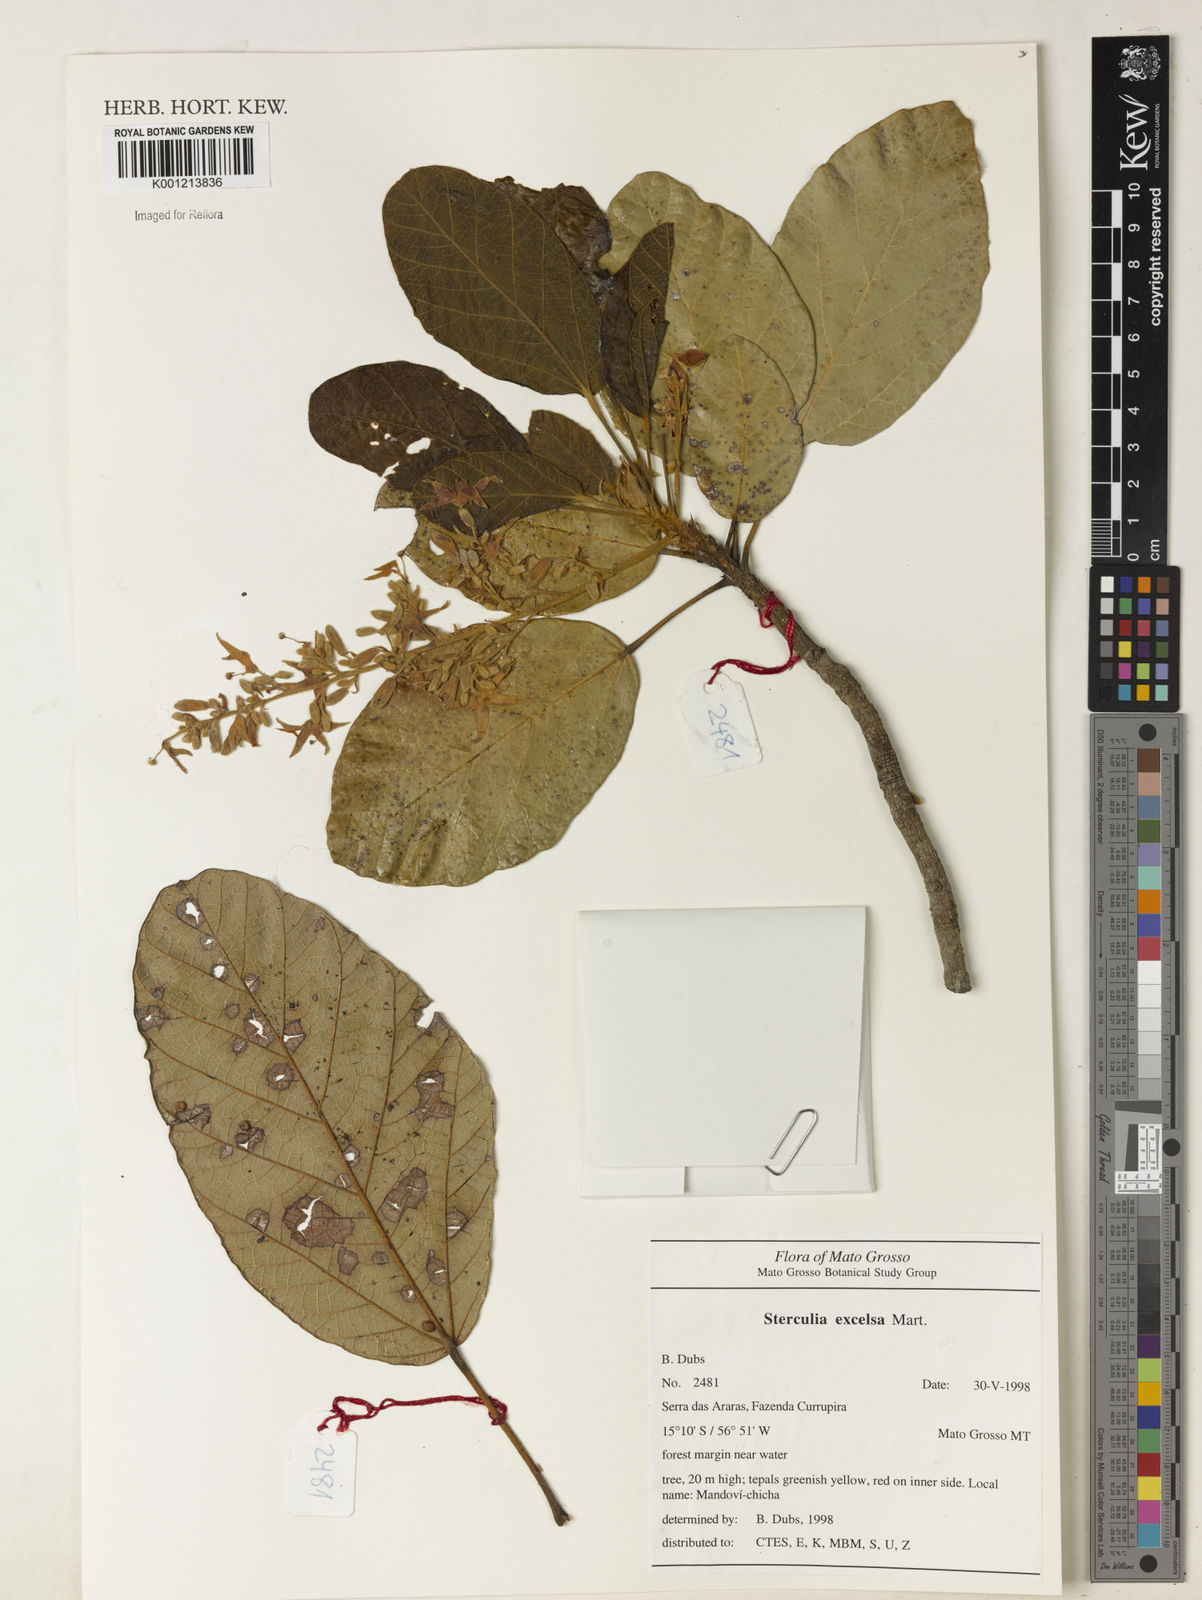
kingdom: Plantae
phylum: Tracheophyta
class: Magnoliopsida
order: Malvales
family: Malvaceae
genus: Sterculia
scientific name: Sterculia excelsa
